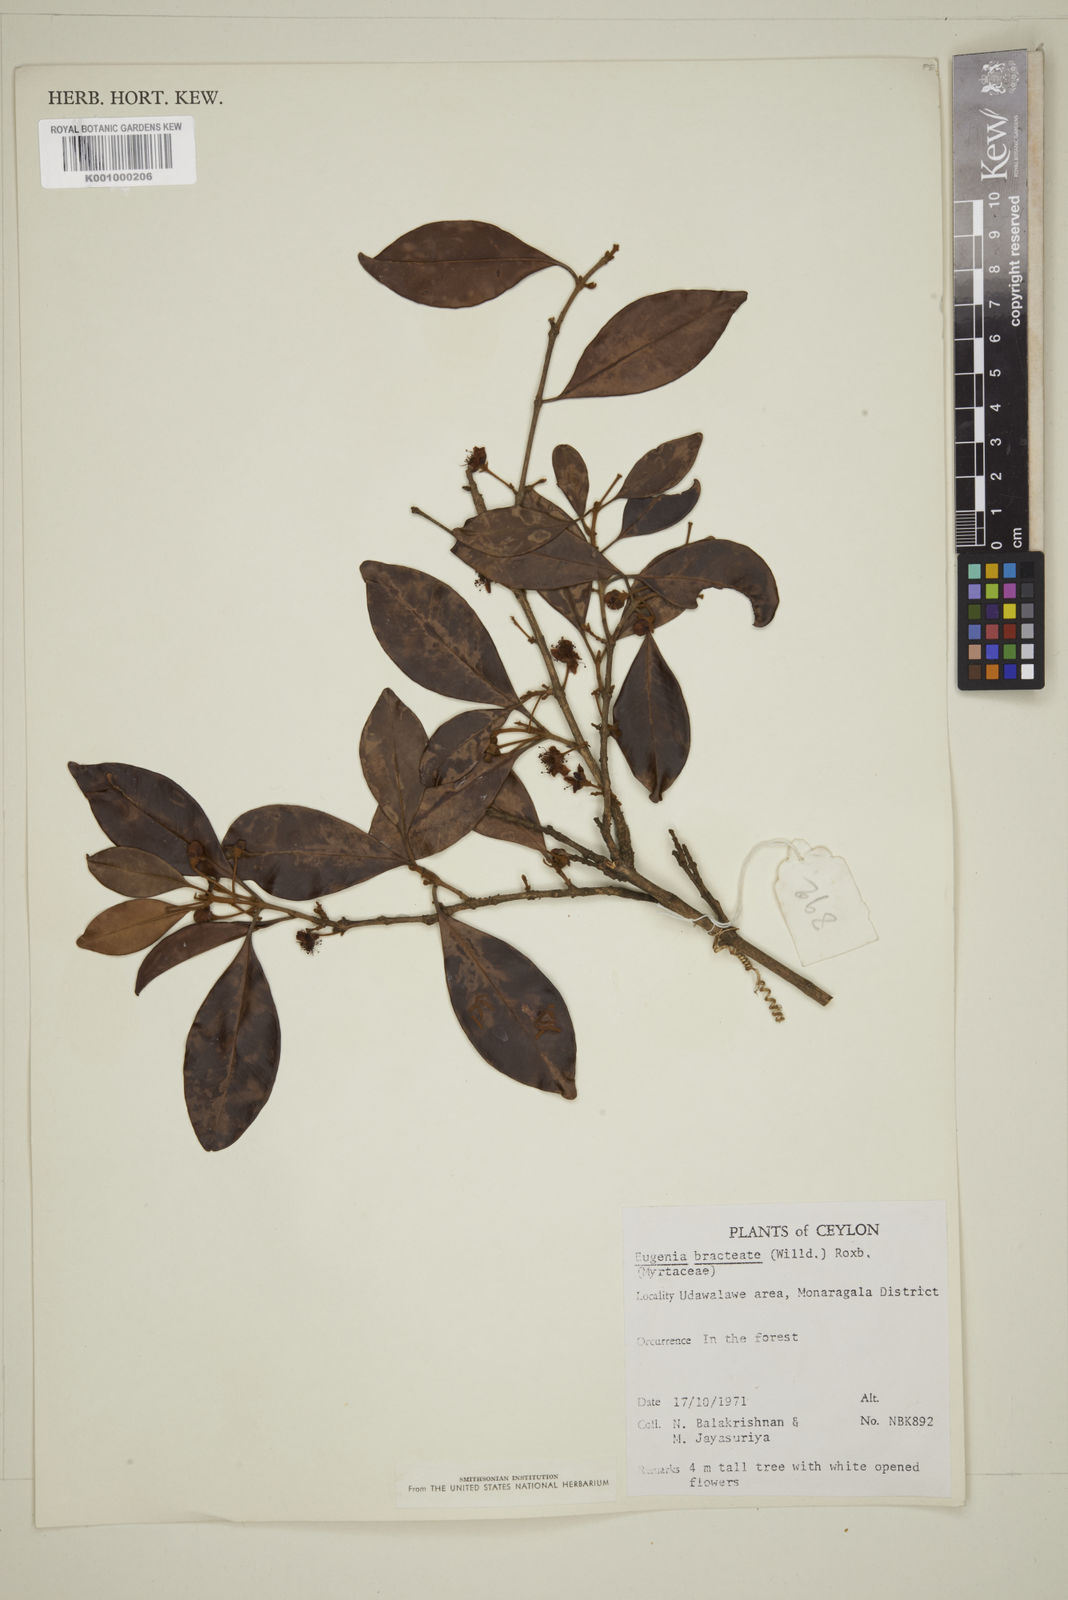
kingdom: Plantae
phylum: Tracheophyta
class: Magnoliopsida
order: Myrtales
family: Myrtaceae
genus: Eugenia
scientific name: Eugenia pseudopsidium
